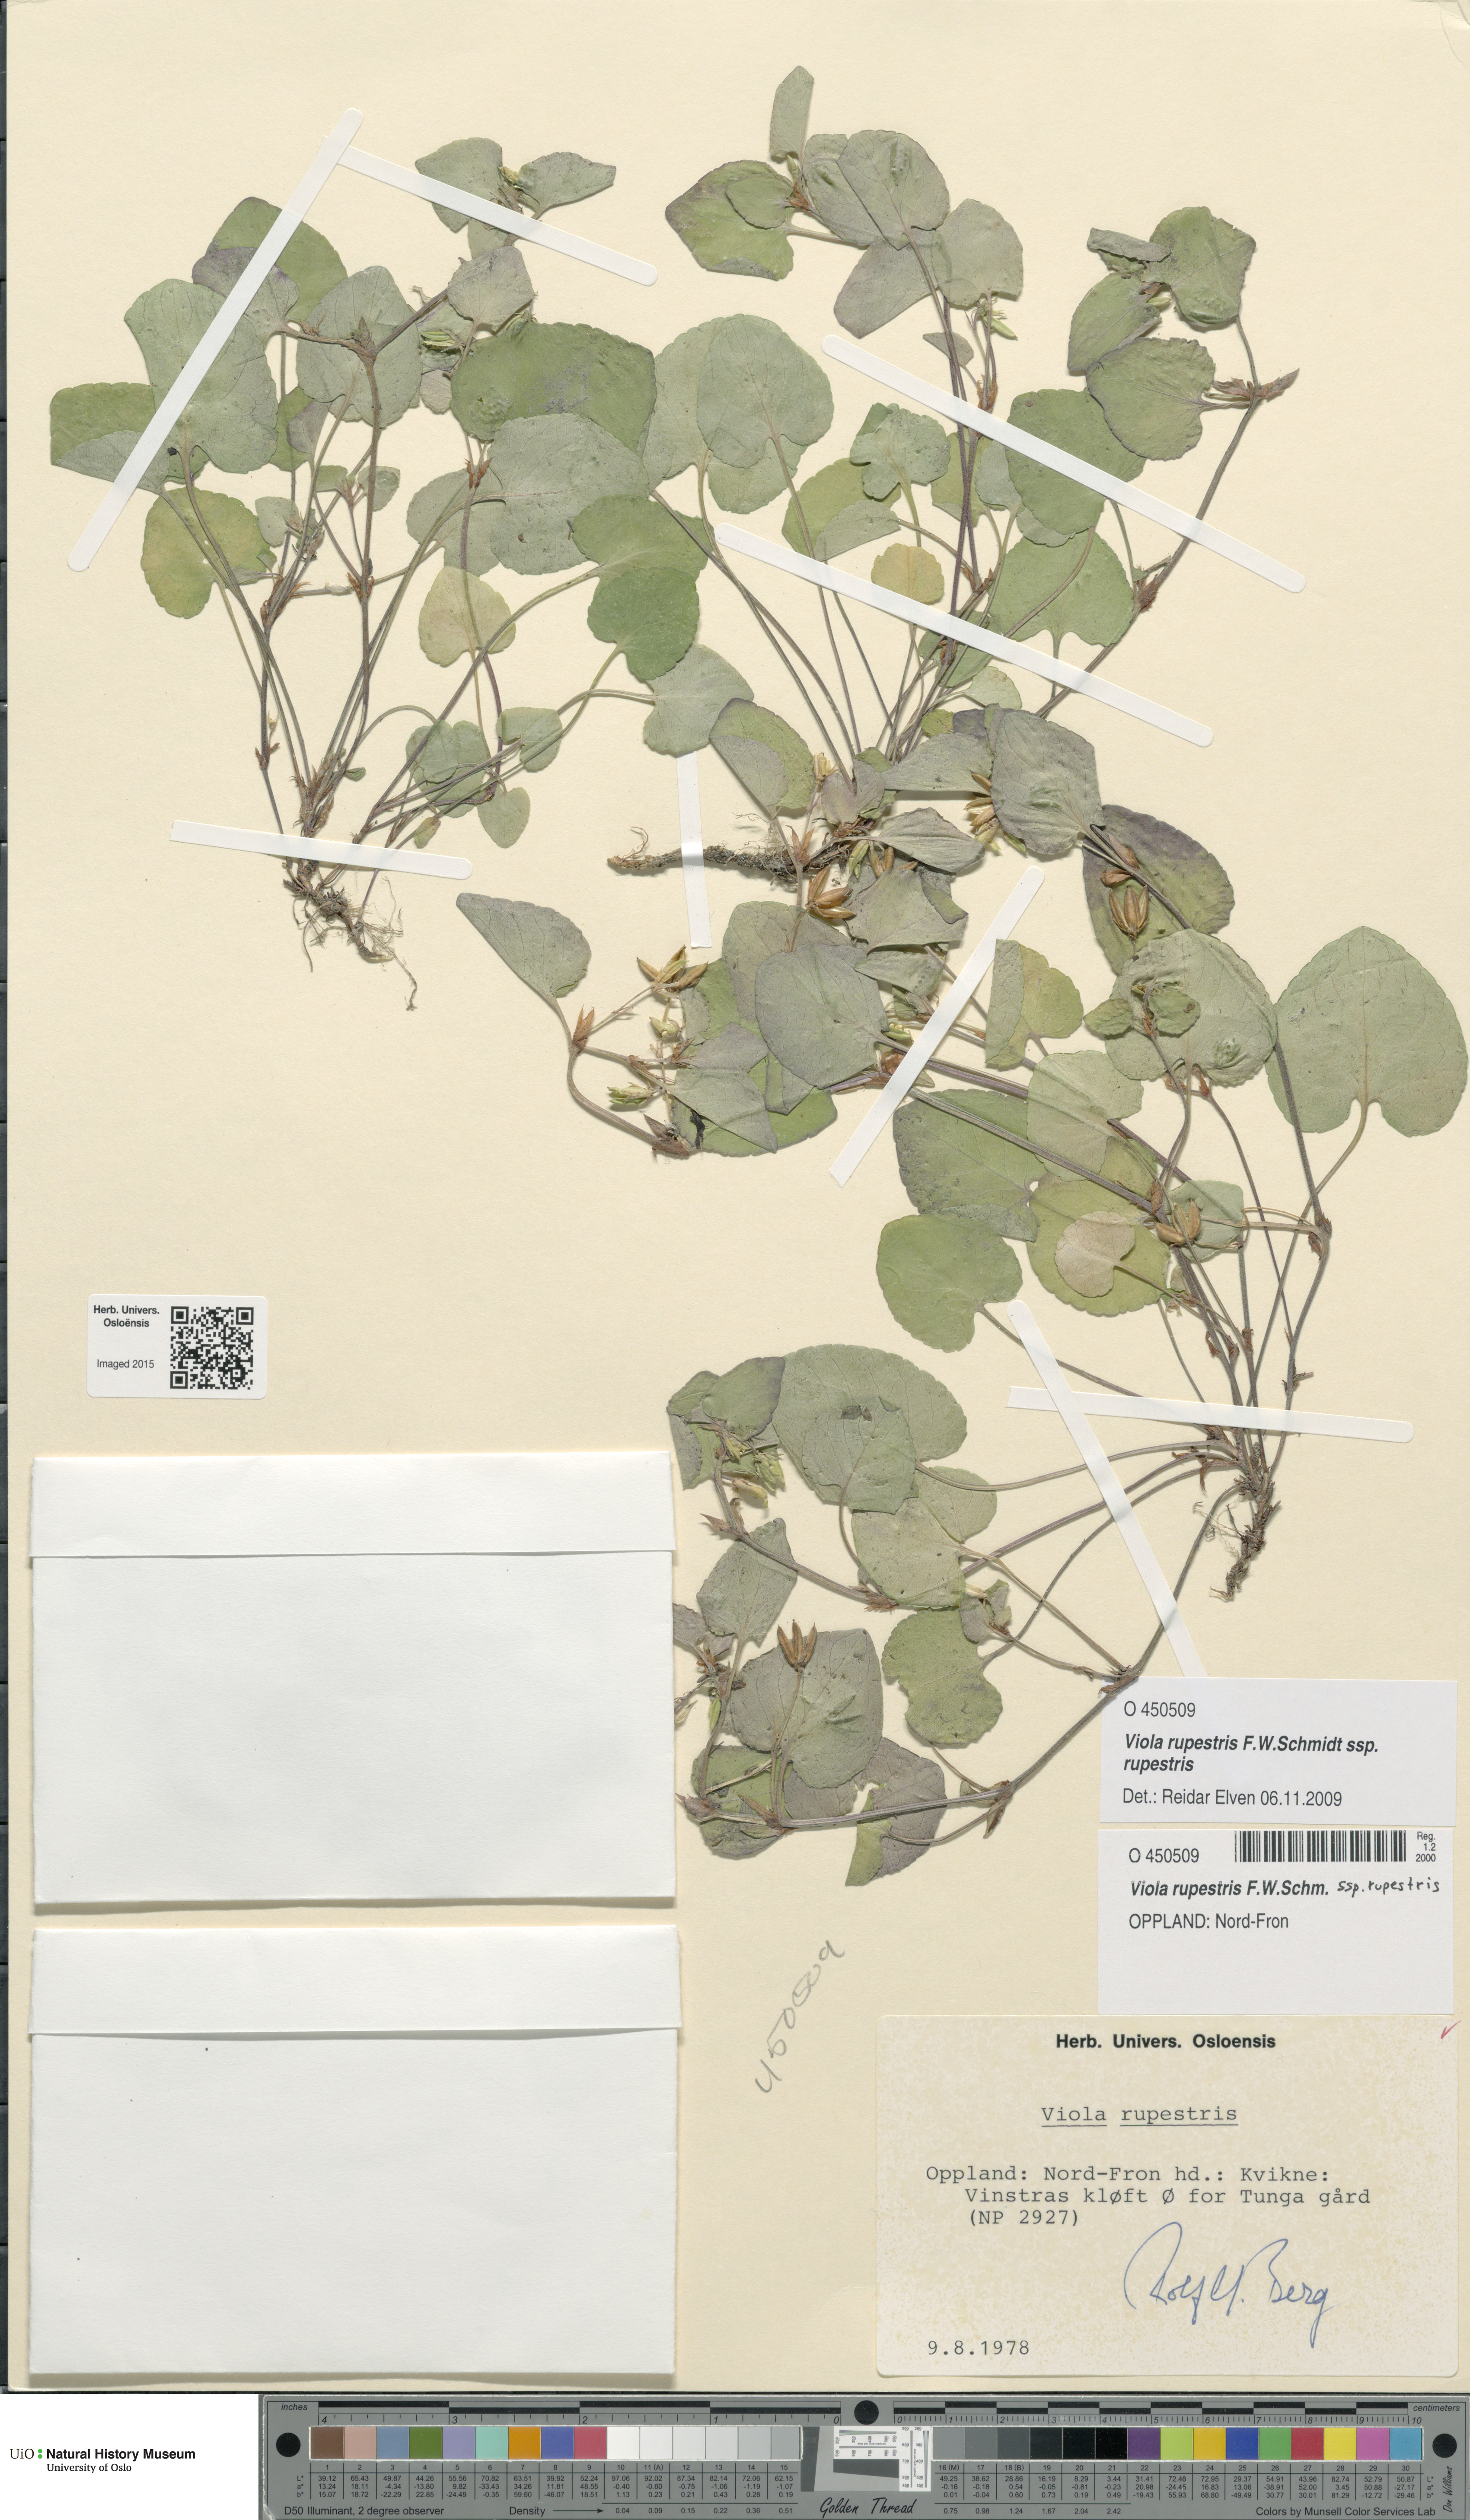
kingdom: Plantae
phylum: Tracheophyta
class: Magnoliopsida
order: Malpighiales
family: Violaceae
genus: Viola
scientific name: Viola rupestris
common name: Teesdale violet
